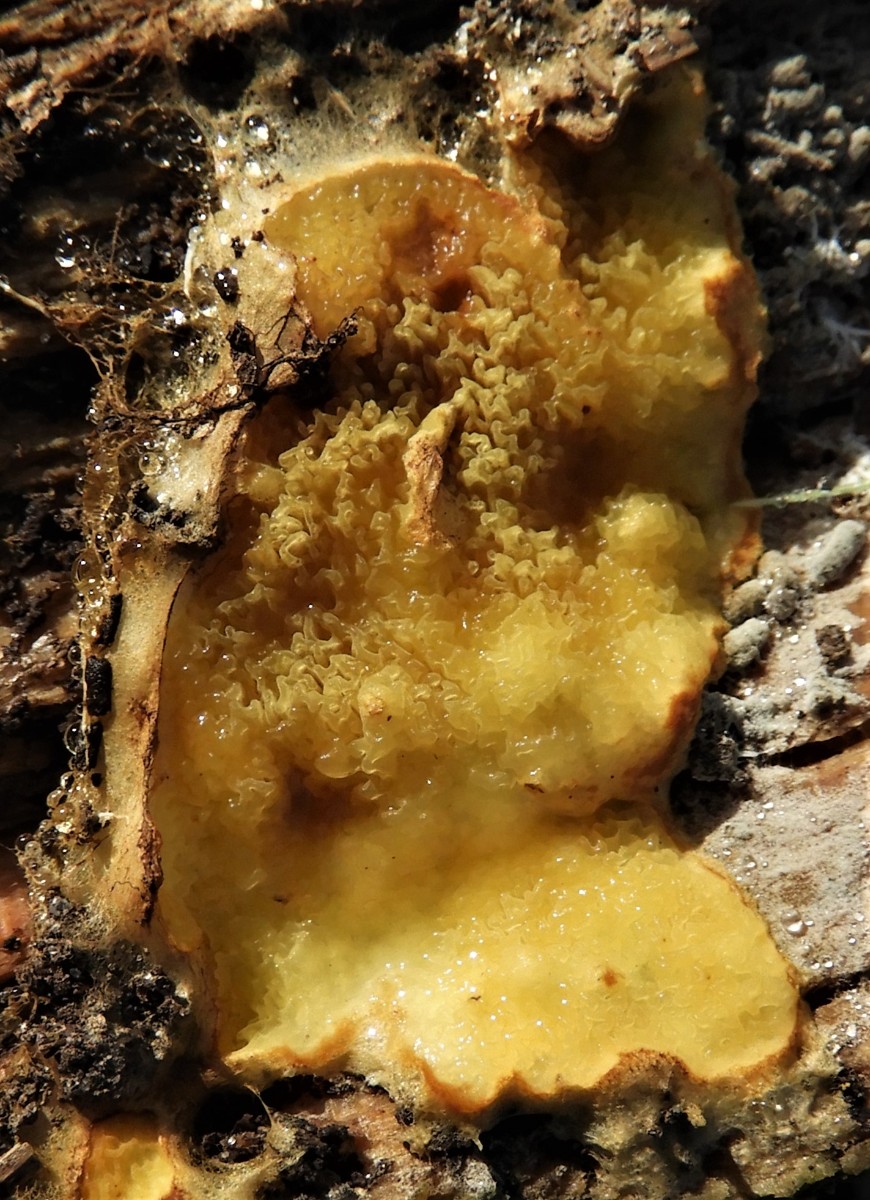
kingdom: Fungi
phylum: Basidiomycota
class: Agaricomycetes
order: Boletales
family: Hygrophoropsidaceae
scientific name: Hygrophoropsidaceae
